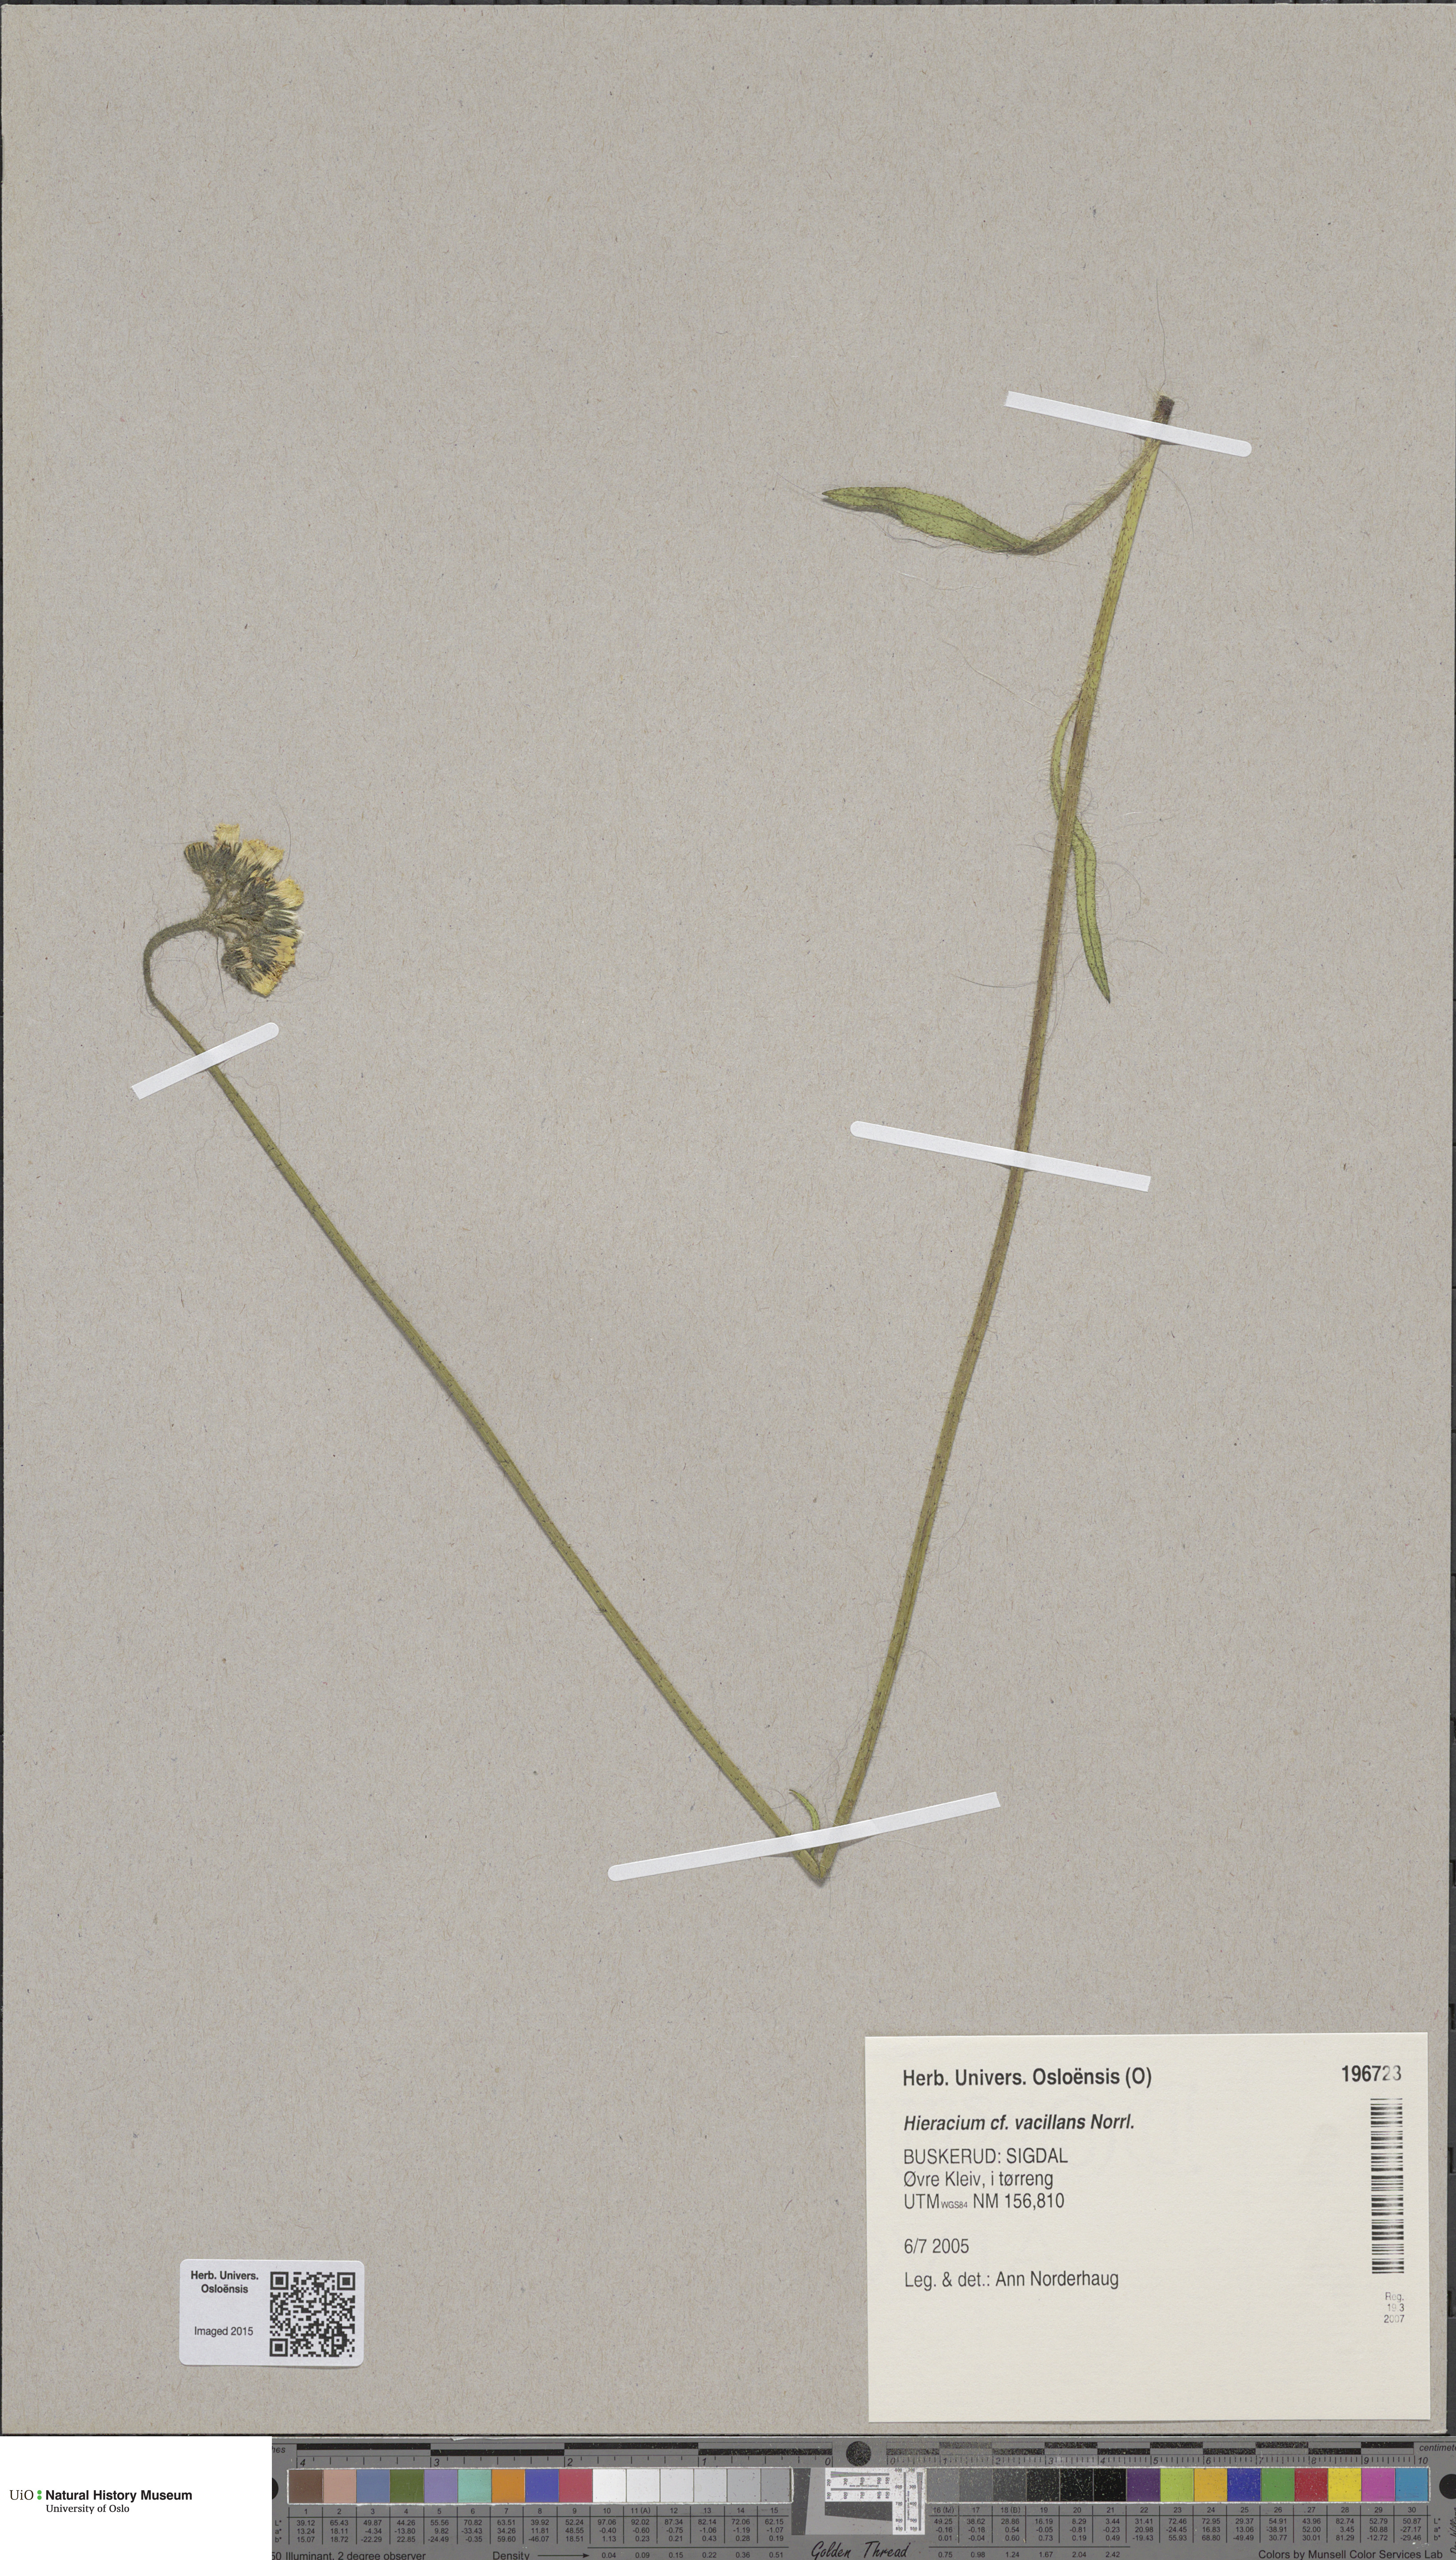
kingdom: Plantae
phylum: Tracheophyta
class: Magnoliopsida
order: Asterales
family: Asteraceae
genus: Pilosella
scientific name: Pilosella glomerata
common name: Queen devil hawkweed
